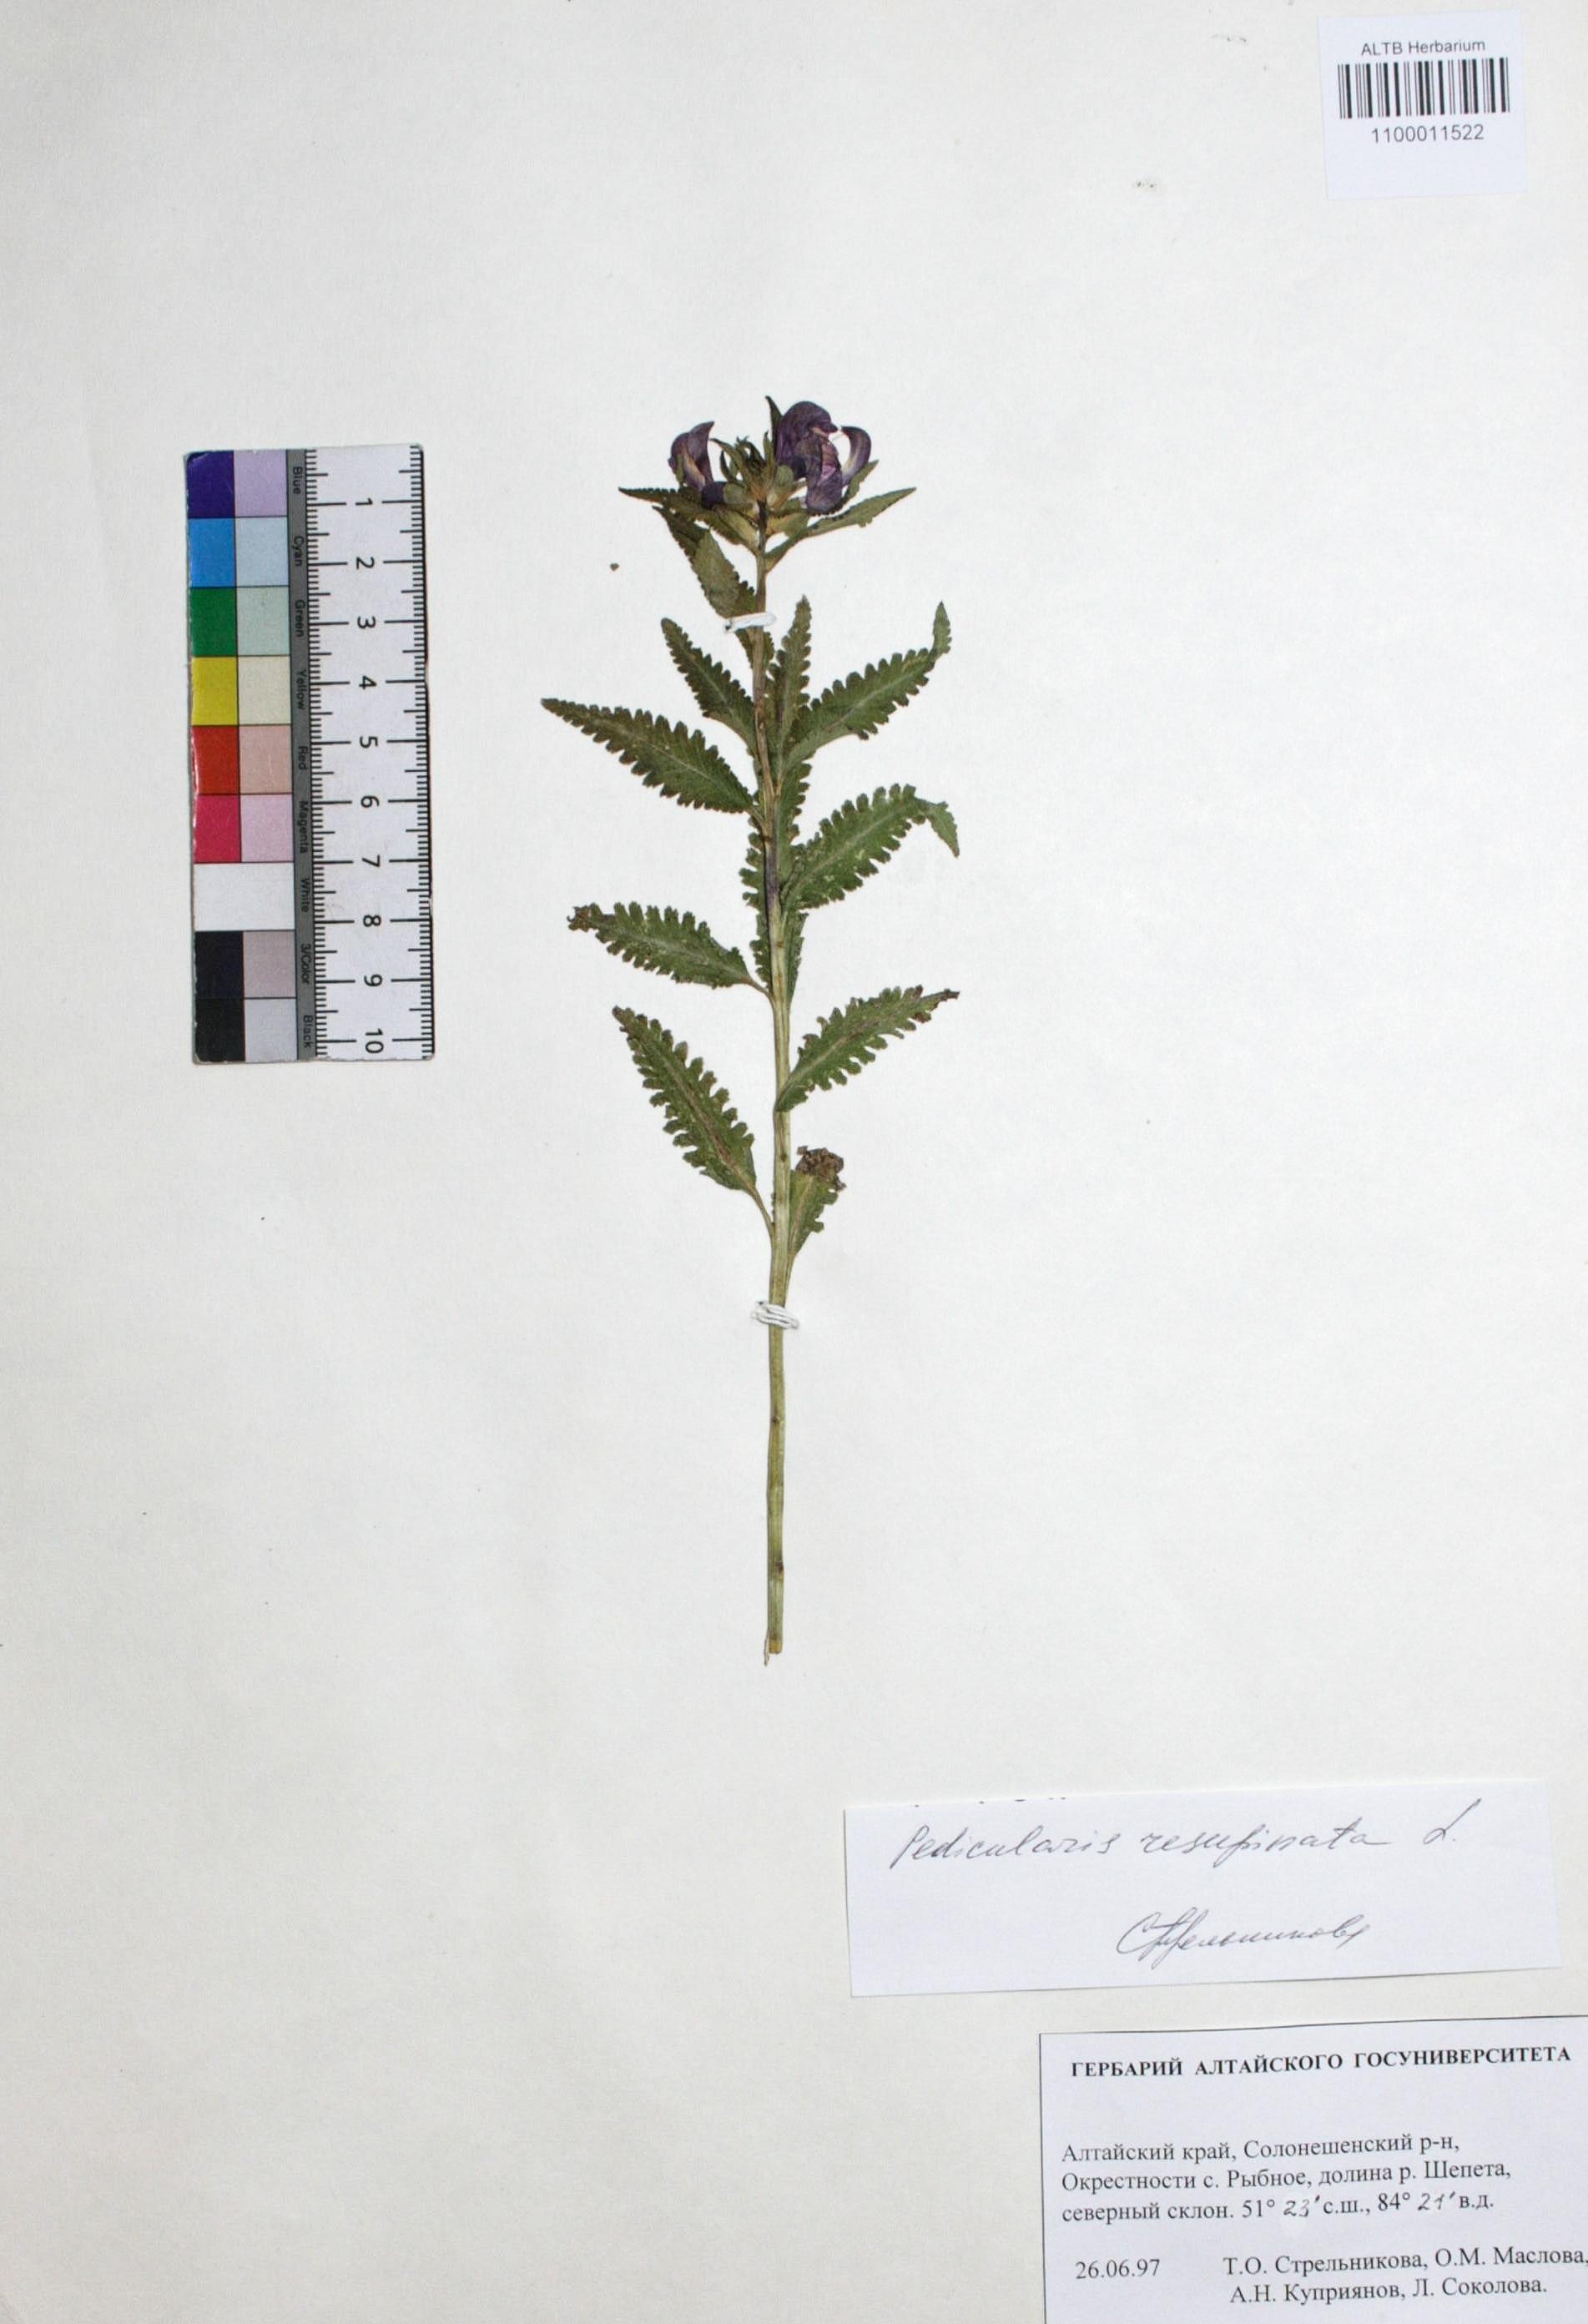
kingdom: Plantae
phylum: Tracheophyta
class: Magnoliopsida
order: Lamiales
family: Orobanchaceae
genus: Pedicularis
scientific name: Pedicularis resupinata
